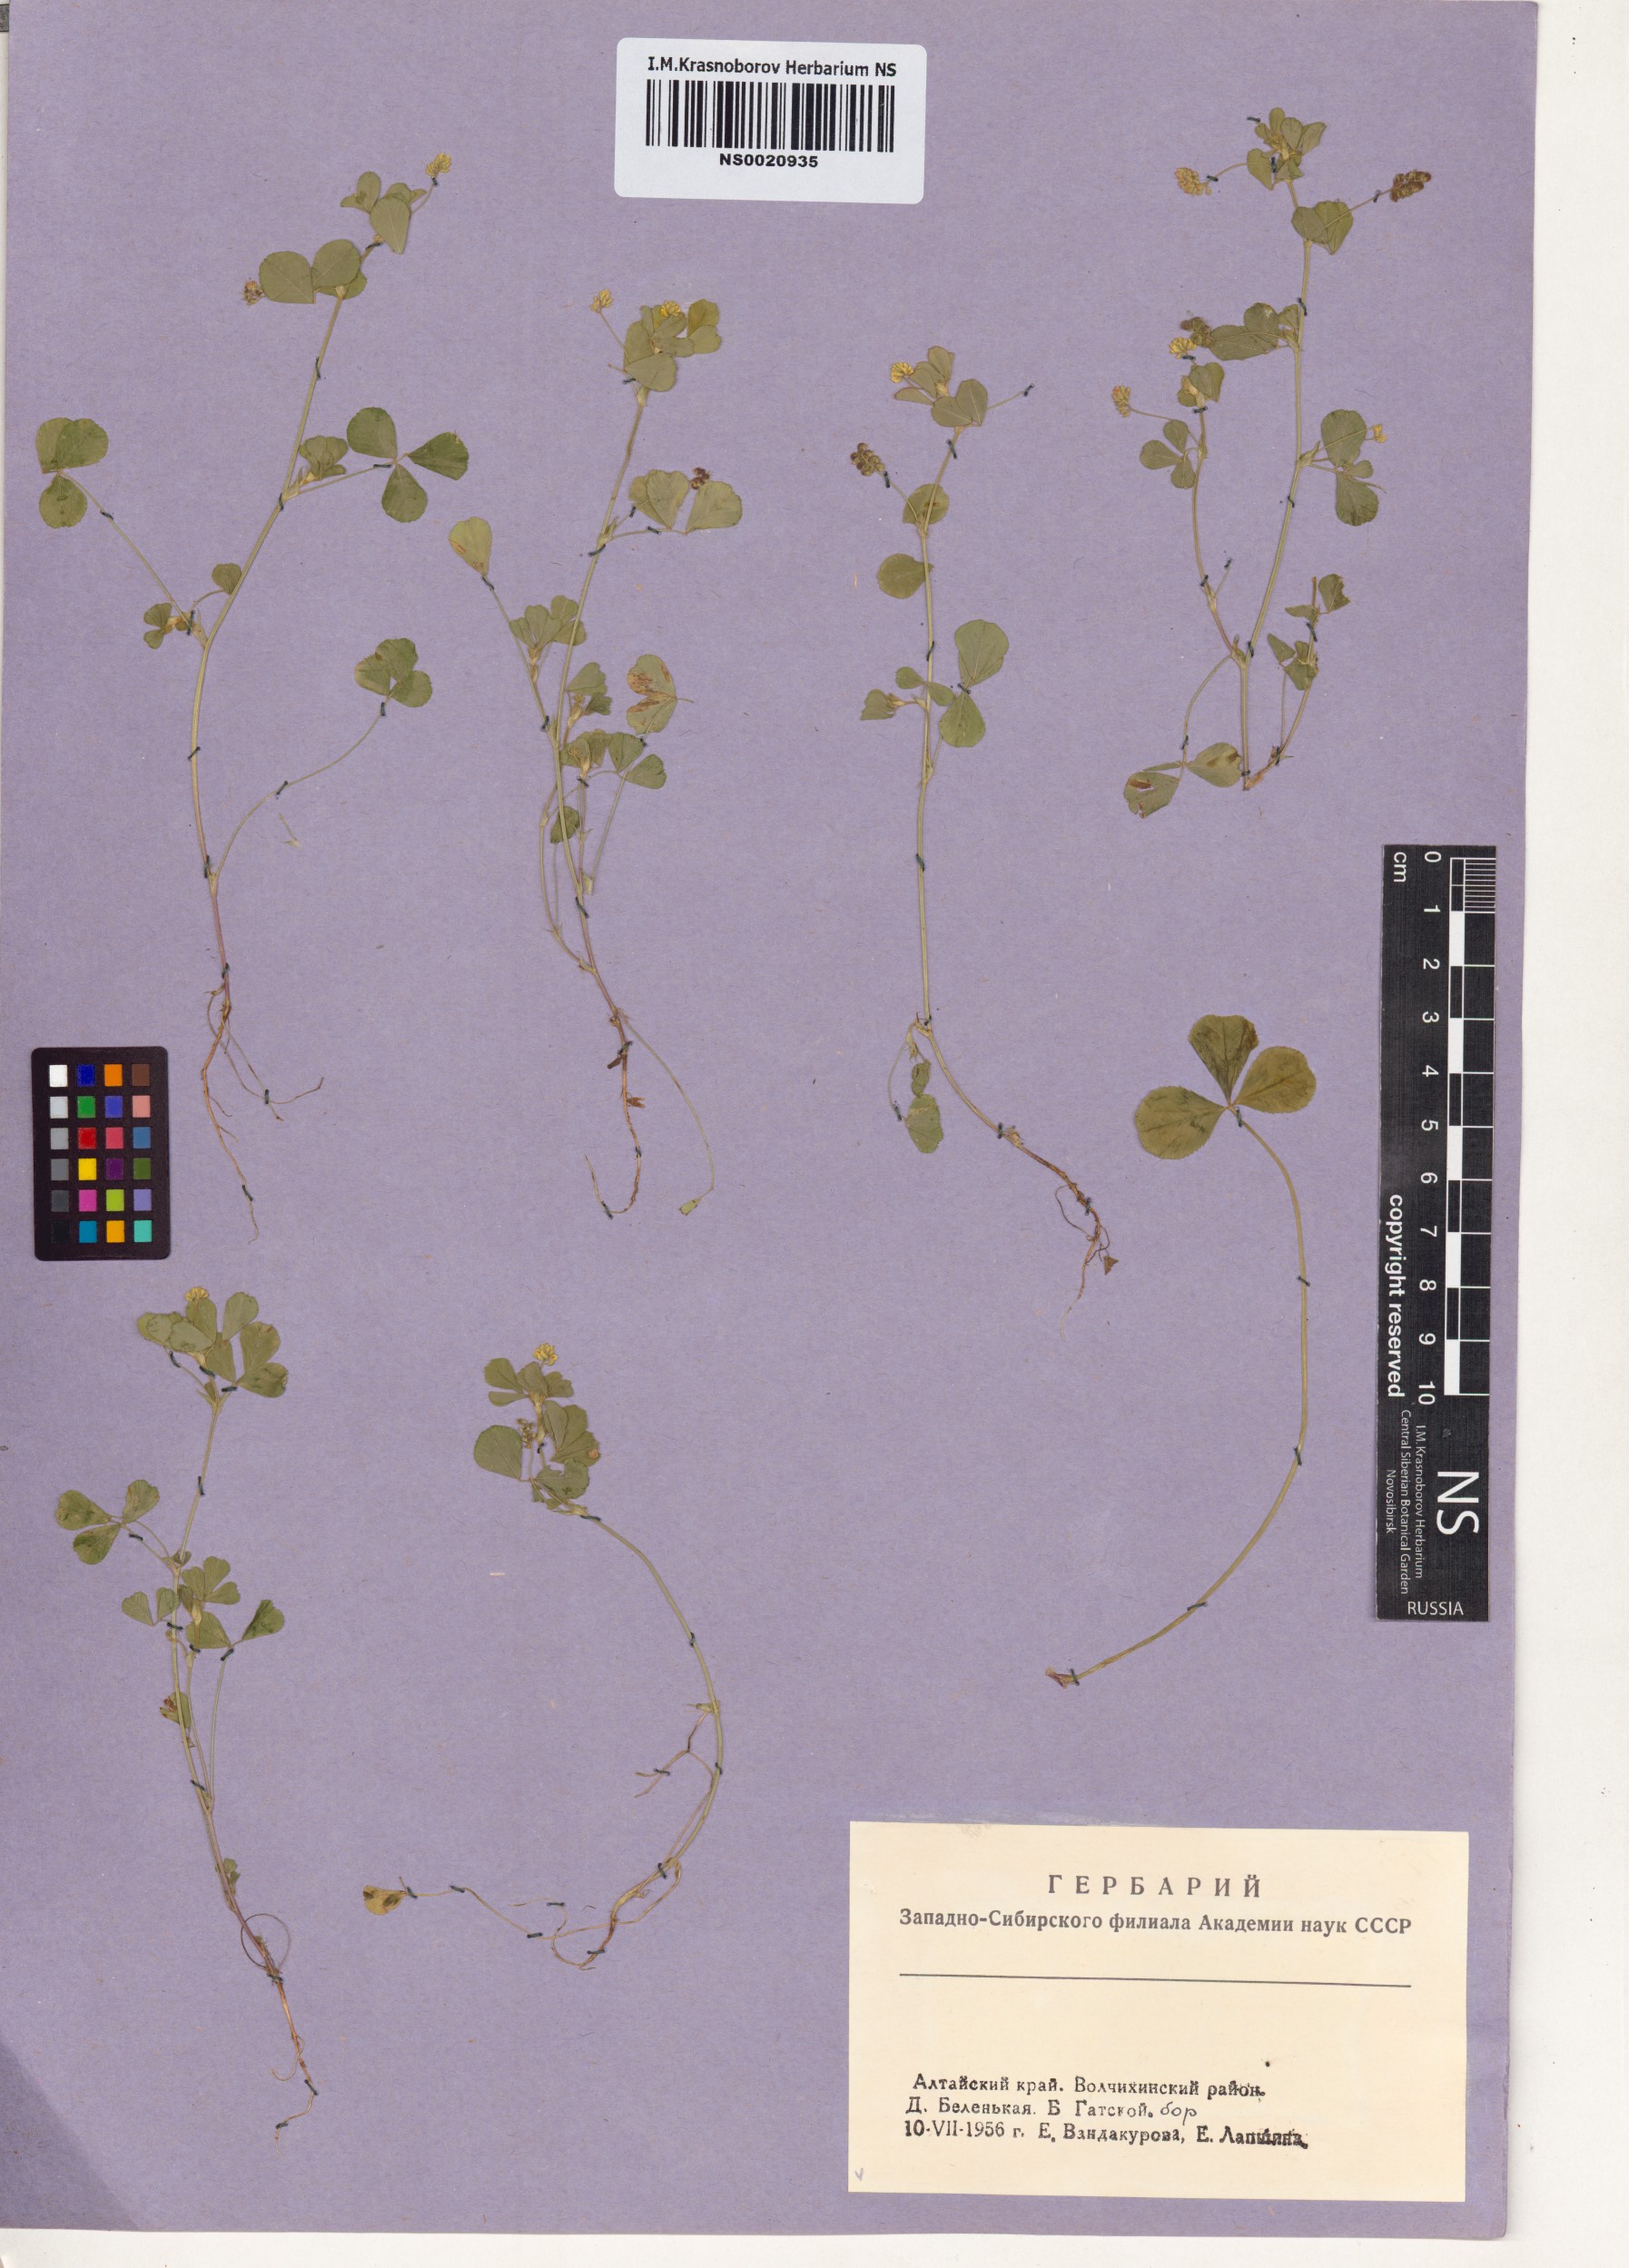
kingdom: Plantae
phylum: Tracheophyta
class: Magnoliopsida
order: Fabales
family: Fabaceae
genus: Medicago
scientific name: Medicago lupulina
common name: Black medick
